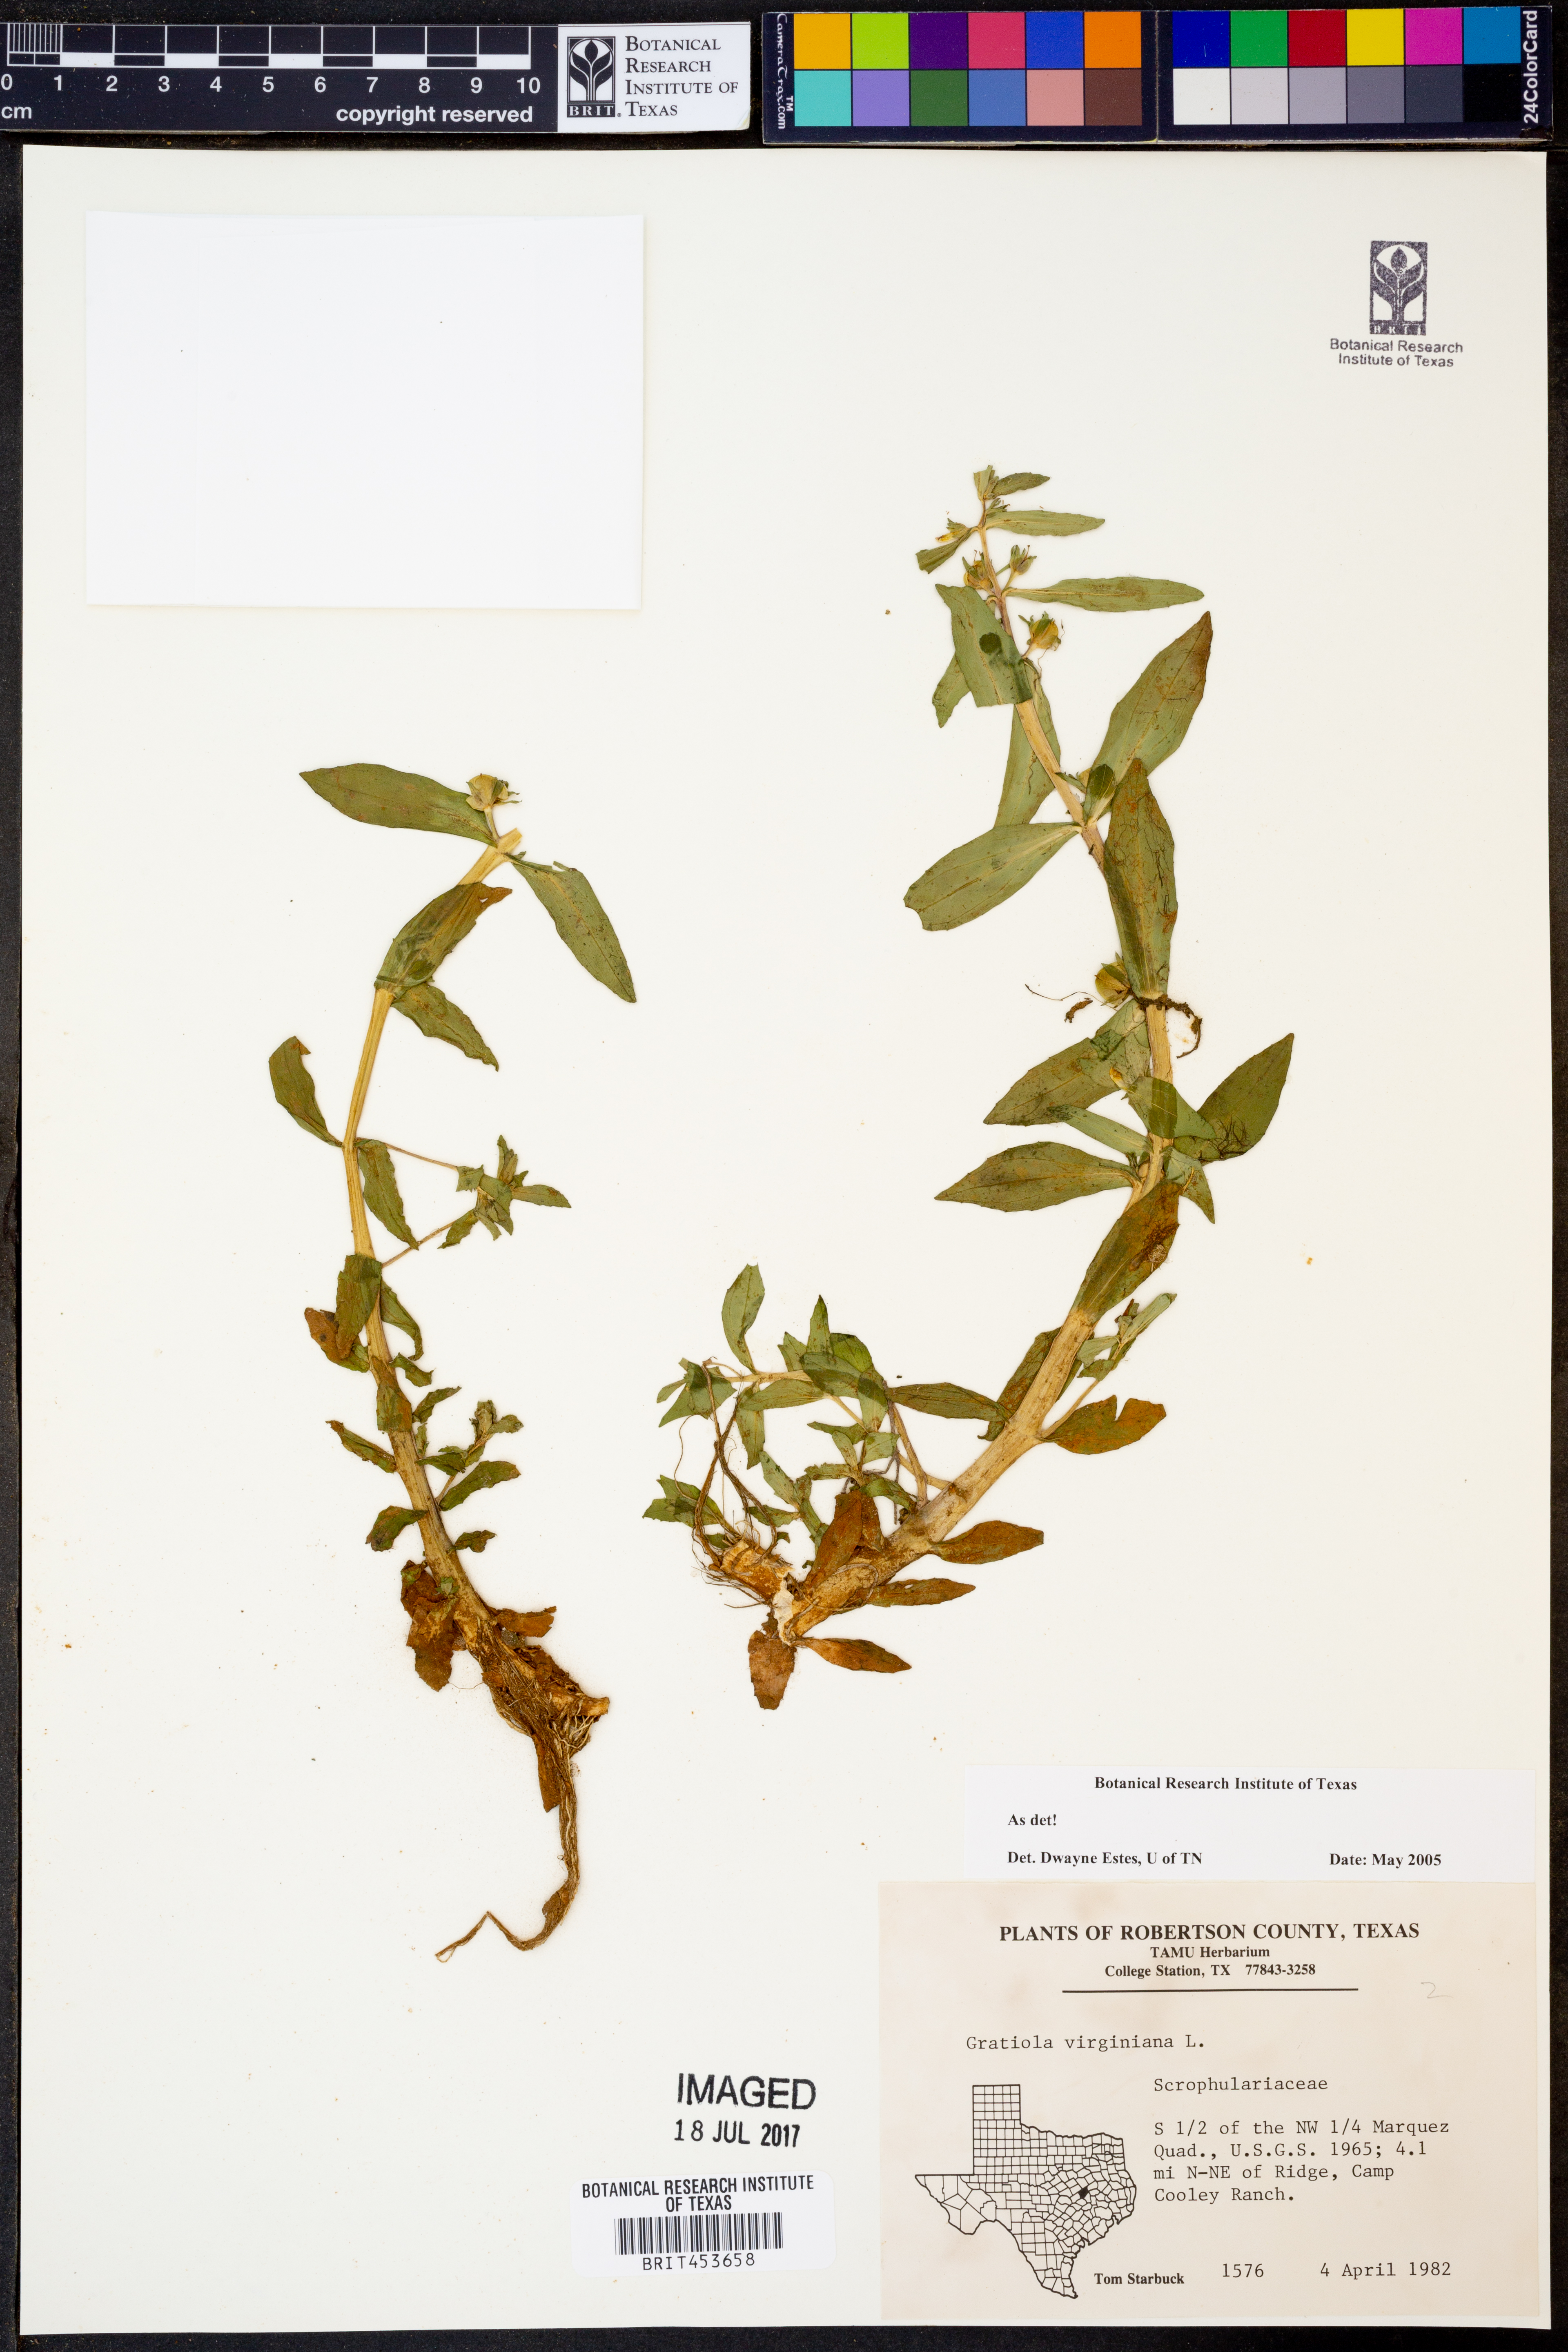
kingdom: Plantae
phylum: Tracheophyta
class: Magnoliopsida
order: Lamiales
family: Plantaginaceae
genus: Gratiola
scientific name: Gratiola virginiana
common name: Roundfruit hedgehyssop
